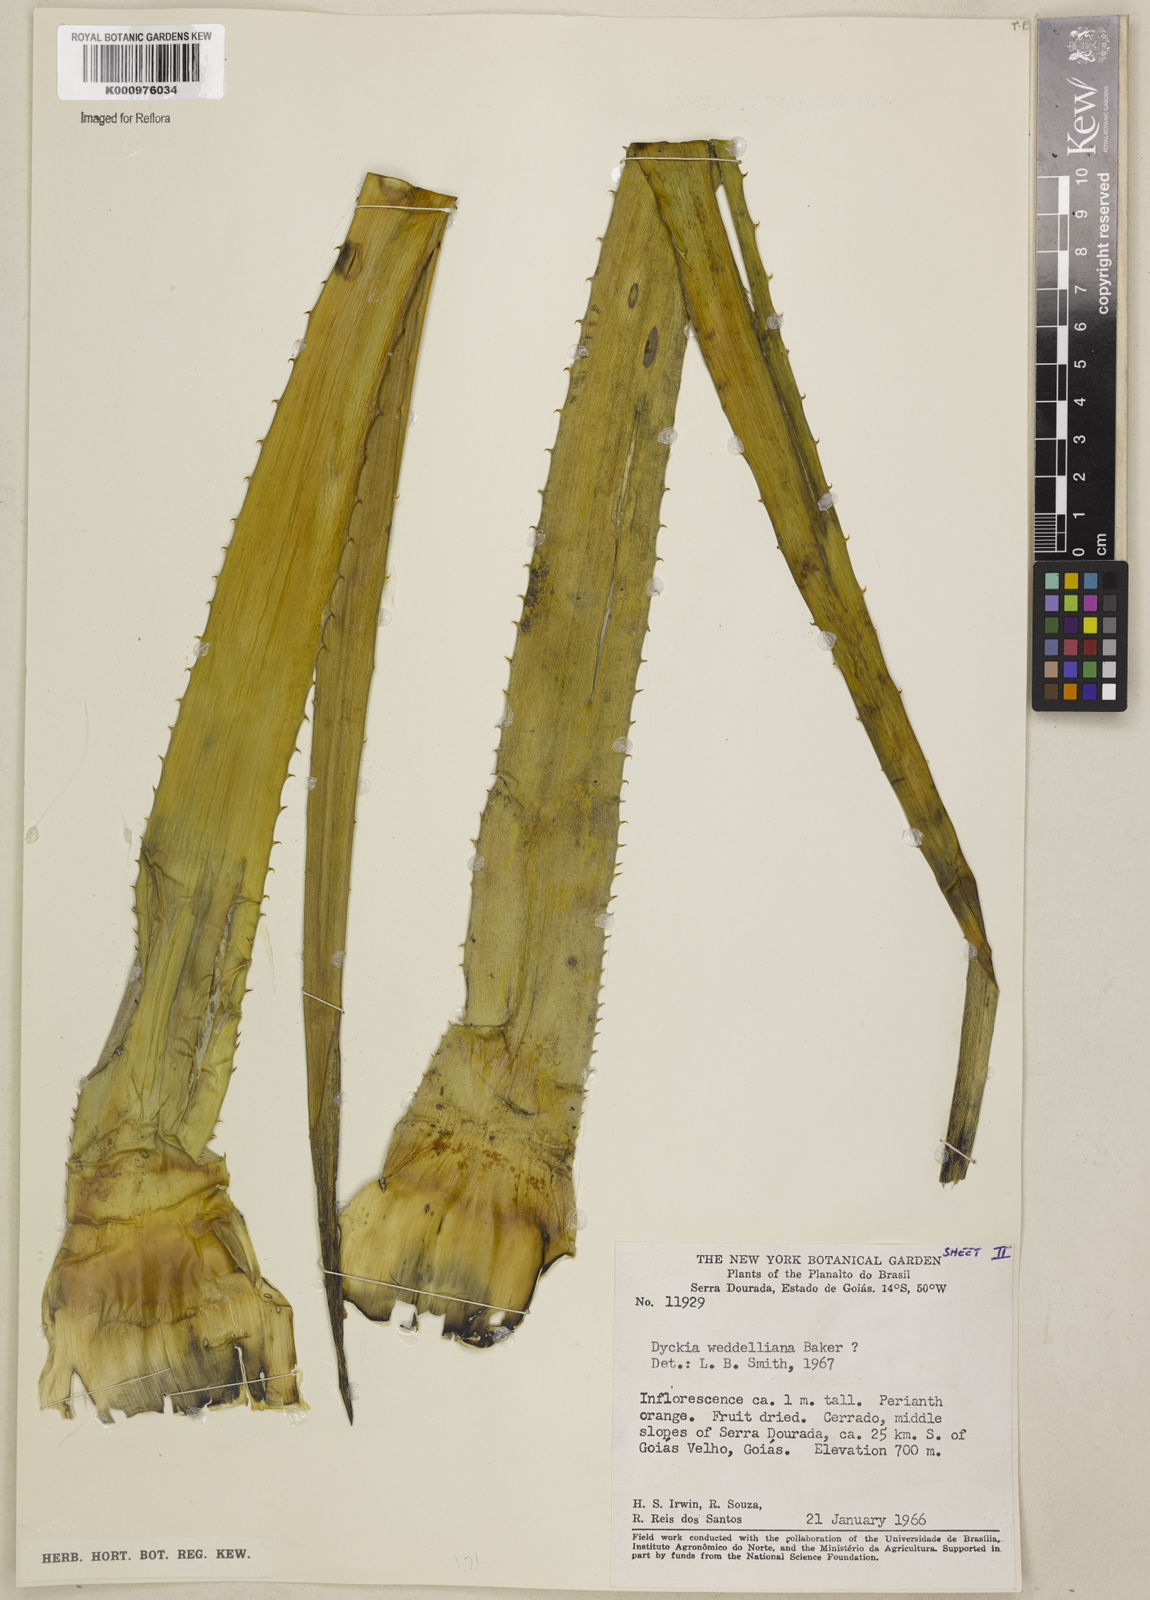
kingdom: Plantae
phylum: Tracheophyta
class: Liliopsida
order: Poales
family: Bromeliaceae
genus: Dyckia
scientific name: Dyckia weddelliana
